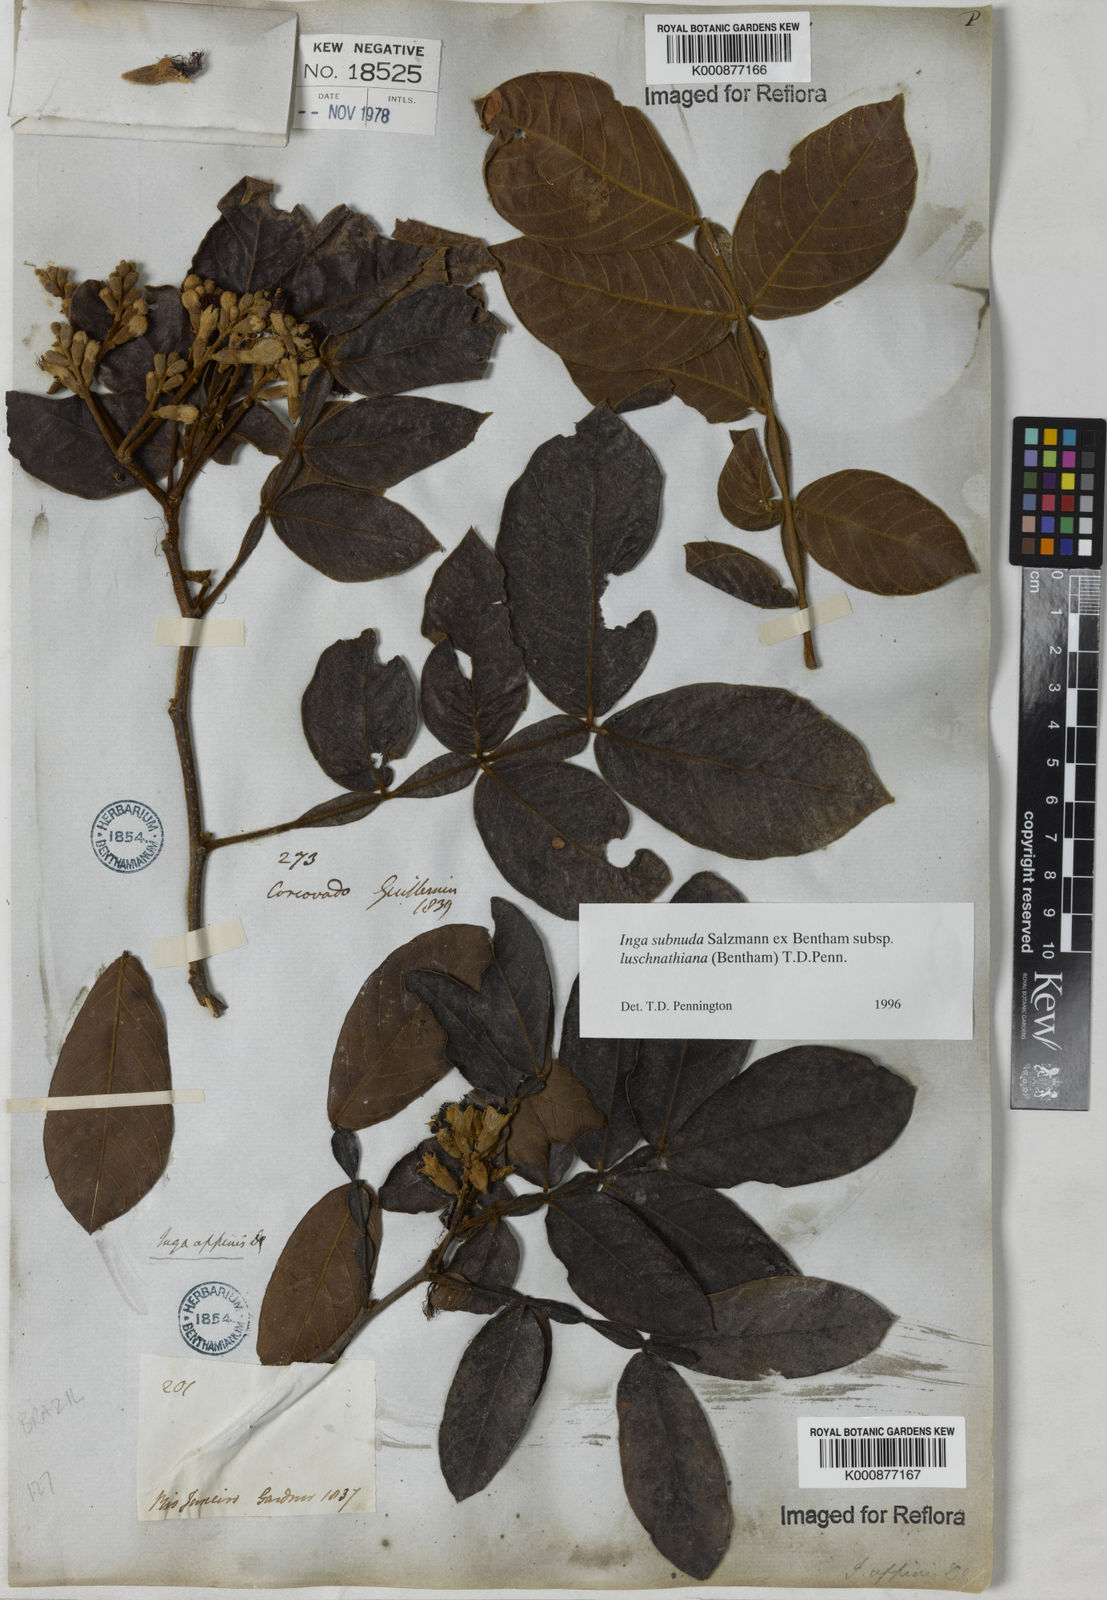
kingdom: Plantae
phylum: Tracheophyta
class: Magnoliopsida
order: Fabales
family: Fabaceae
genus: Inga
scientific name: Inga subnuda
